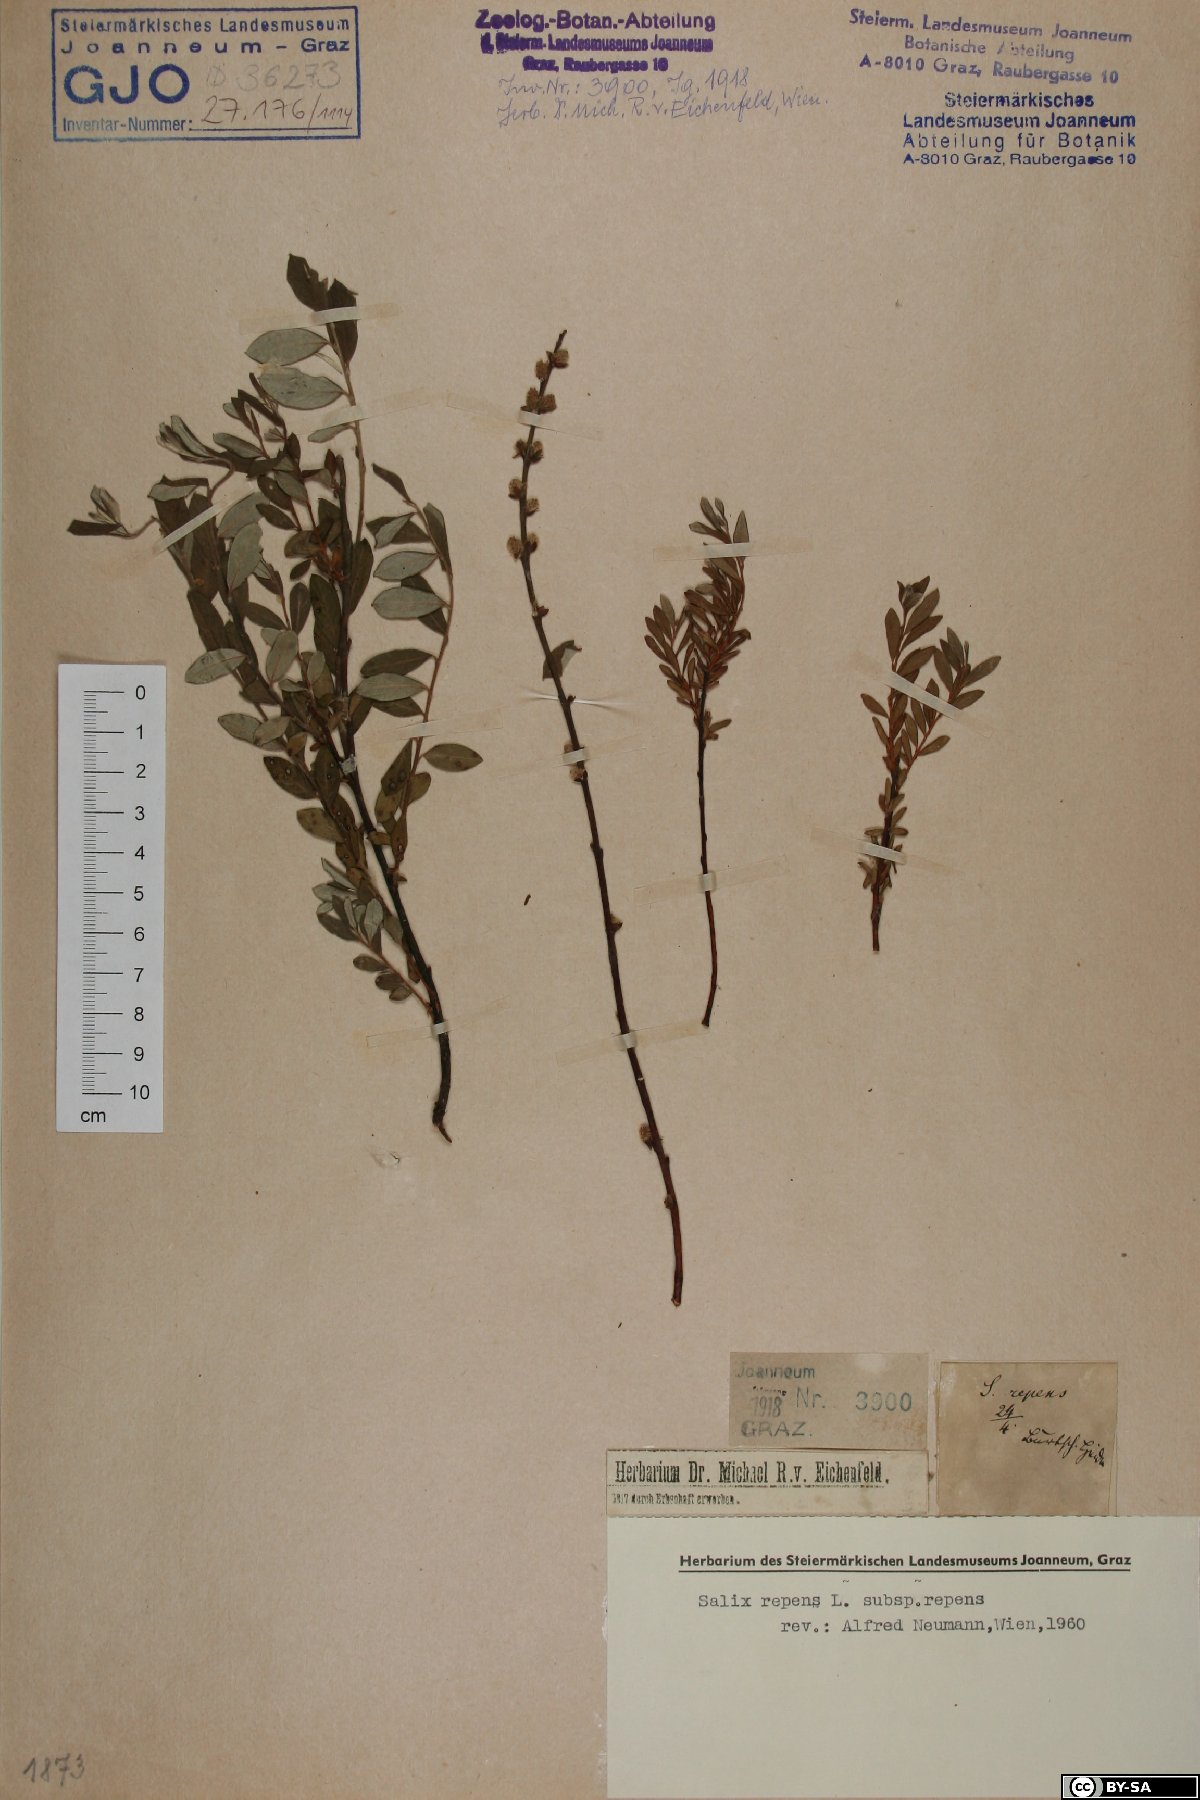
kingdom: Plantae
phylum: Tracheophyta
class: Magnoliopsida
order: Malpighiales
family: Salicaceae
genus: Salix
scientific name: Salix repens
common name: Creeping willow
